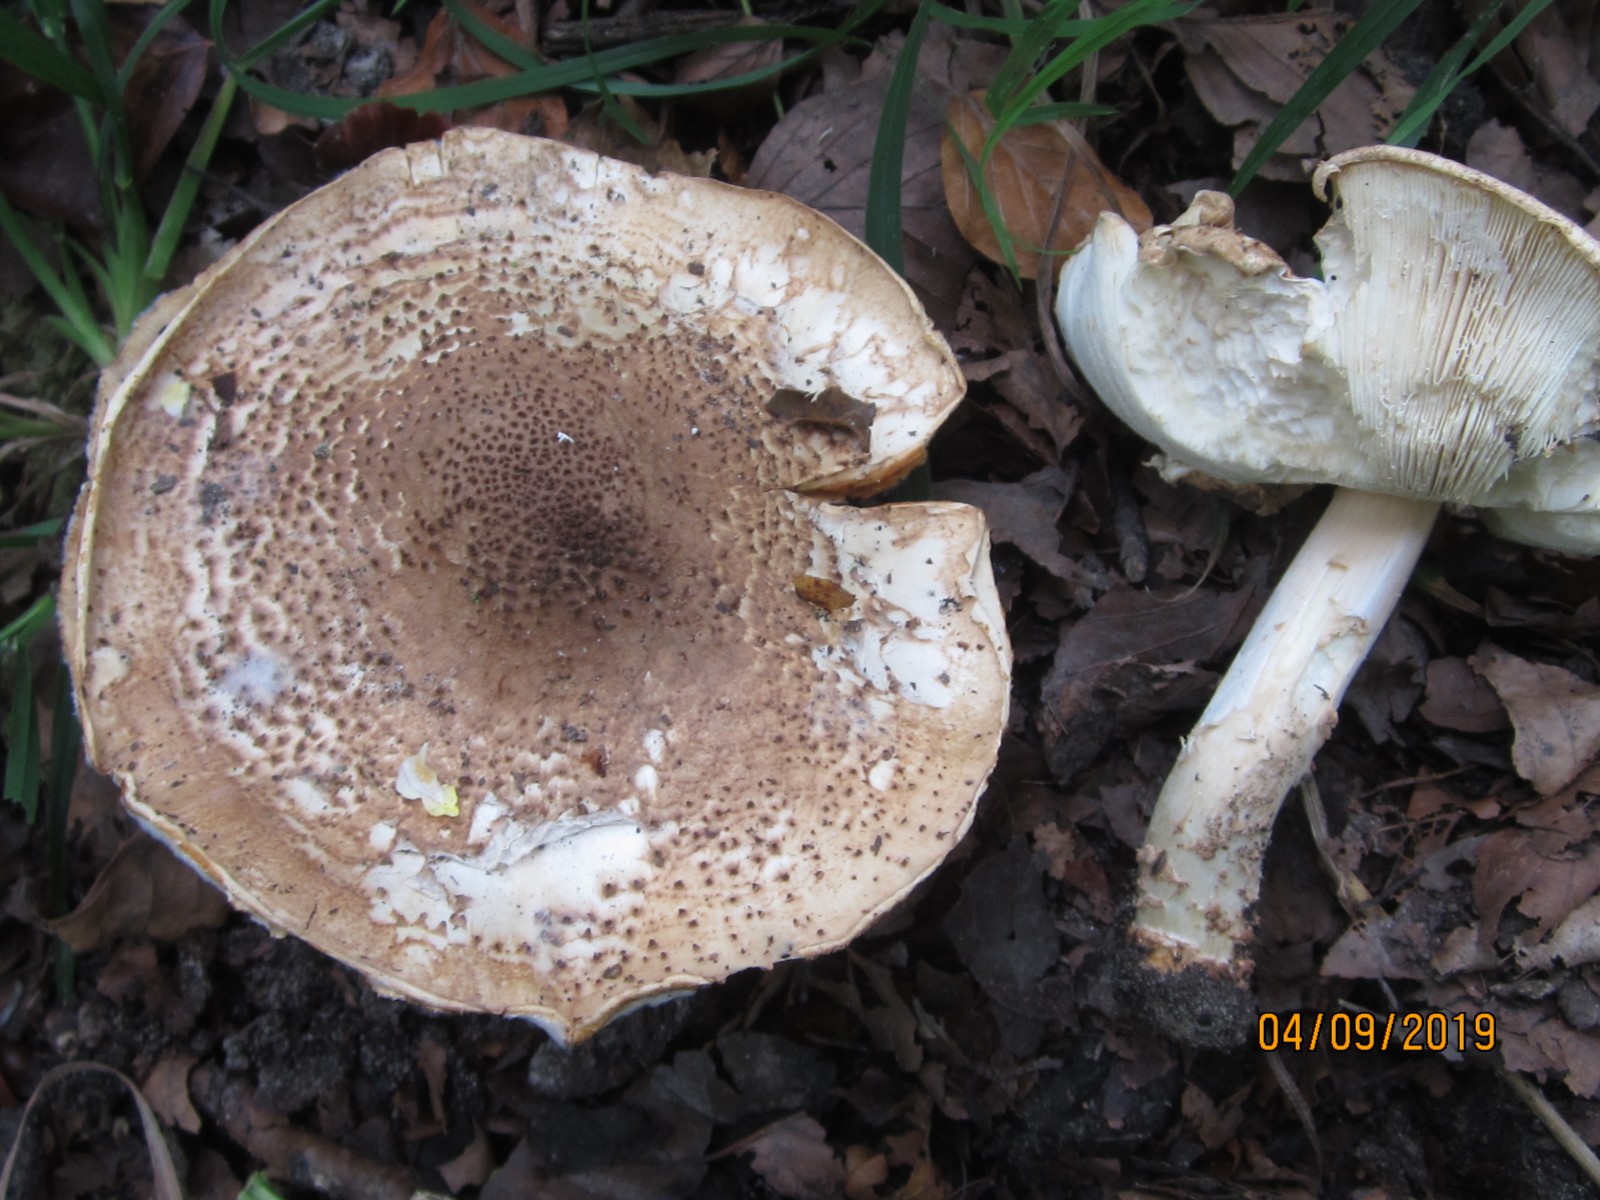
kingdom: Fungi
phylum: Basidiomycota
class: Agaricomycetes
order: Agaricales
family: Agaricaceae
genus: Echinoderma
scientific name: Echinoderma asperum
